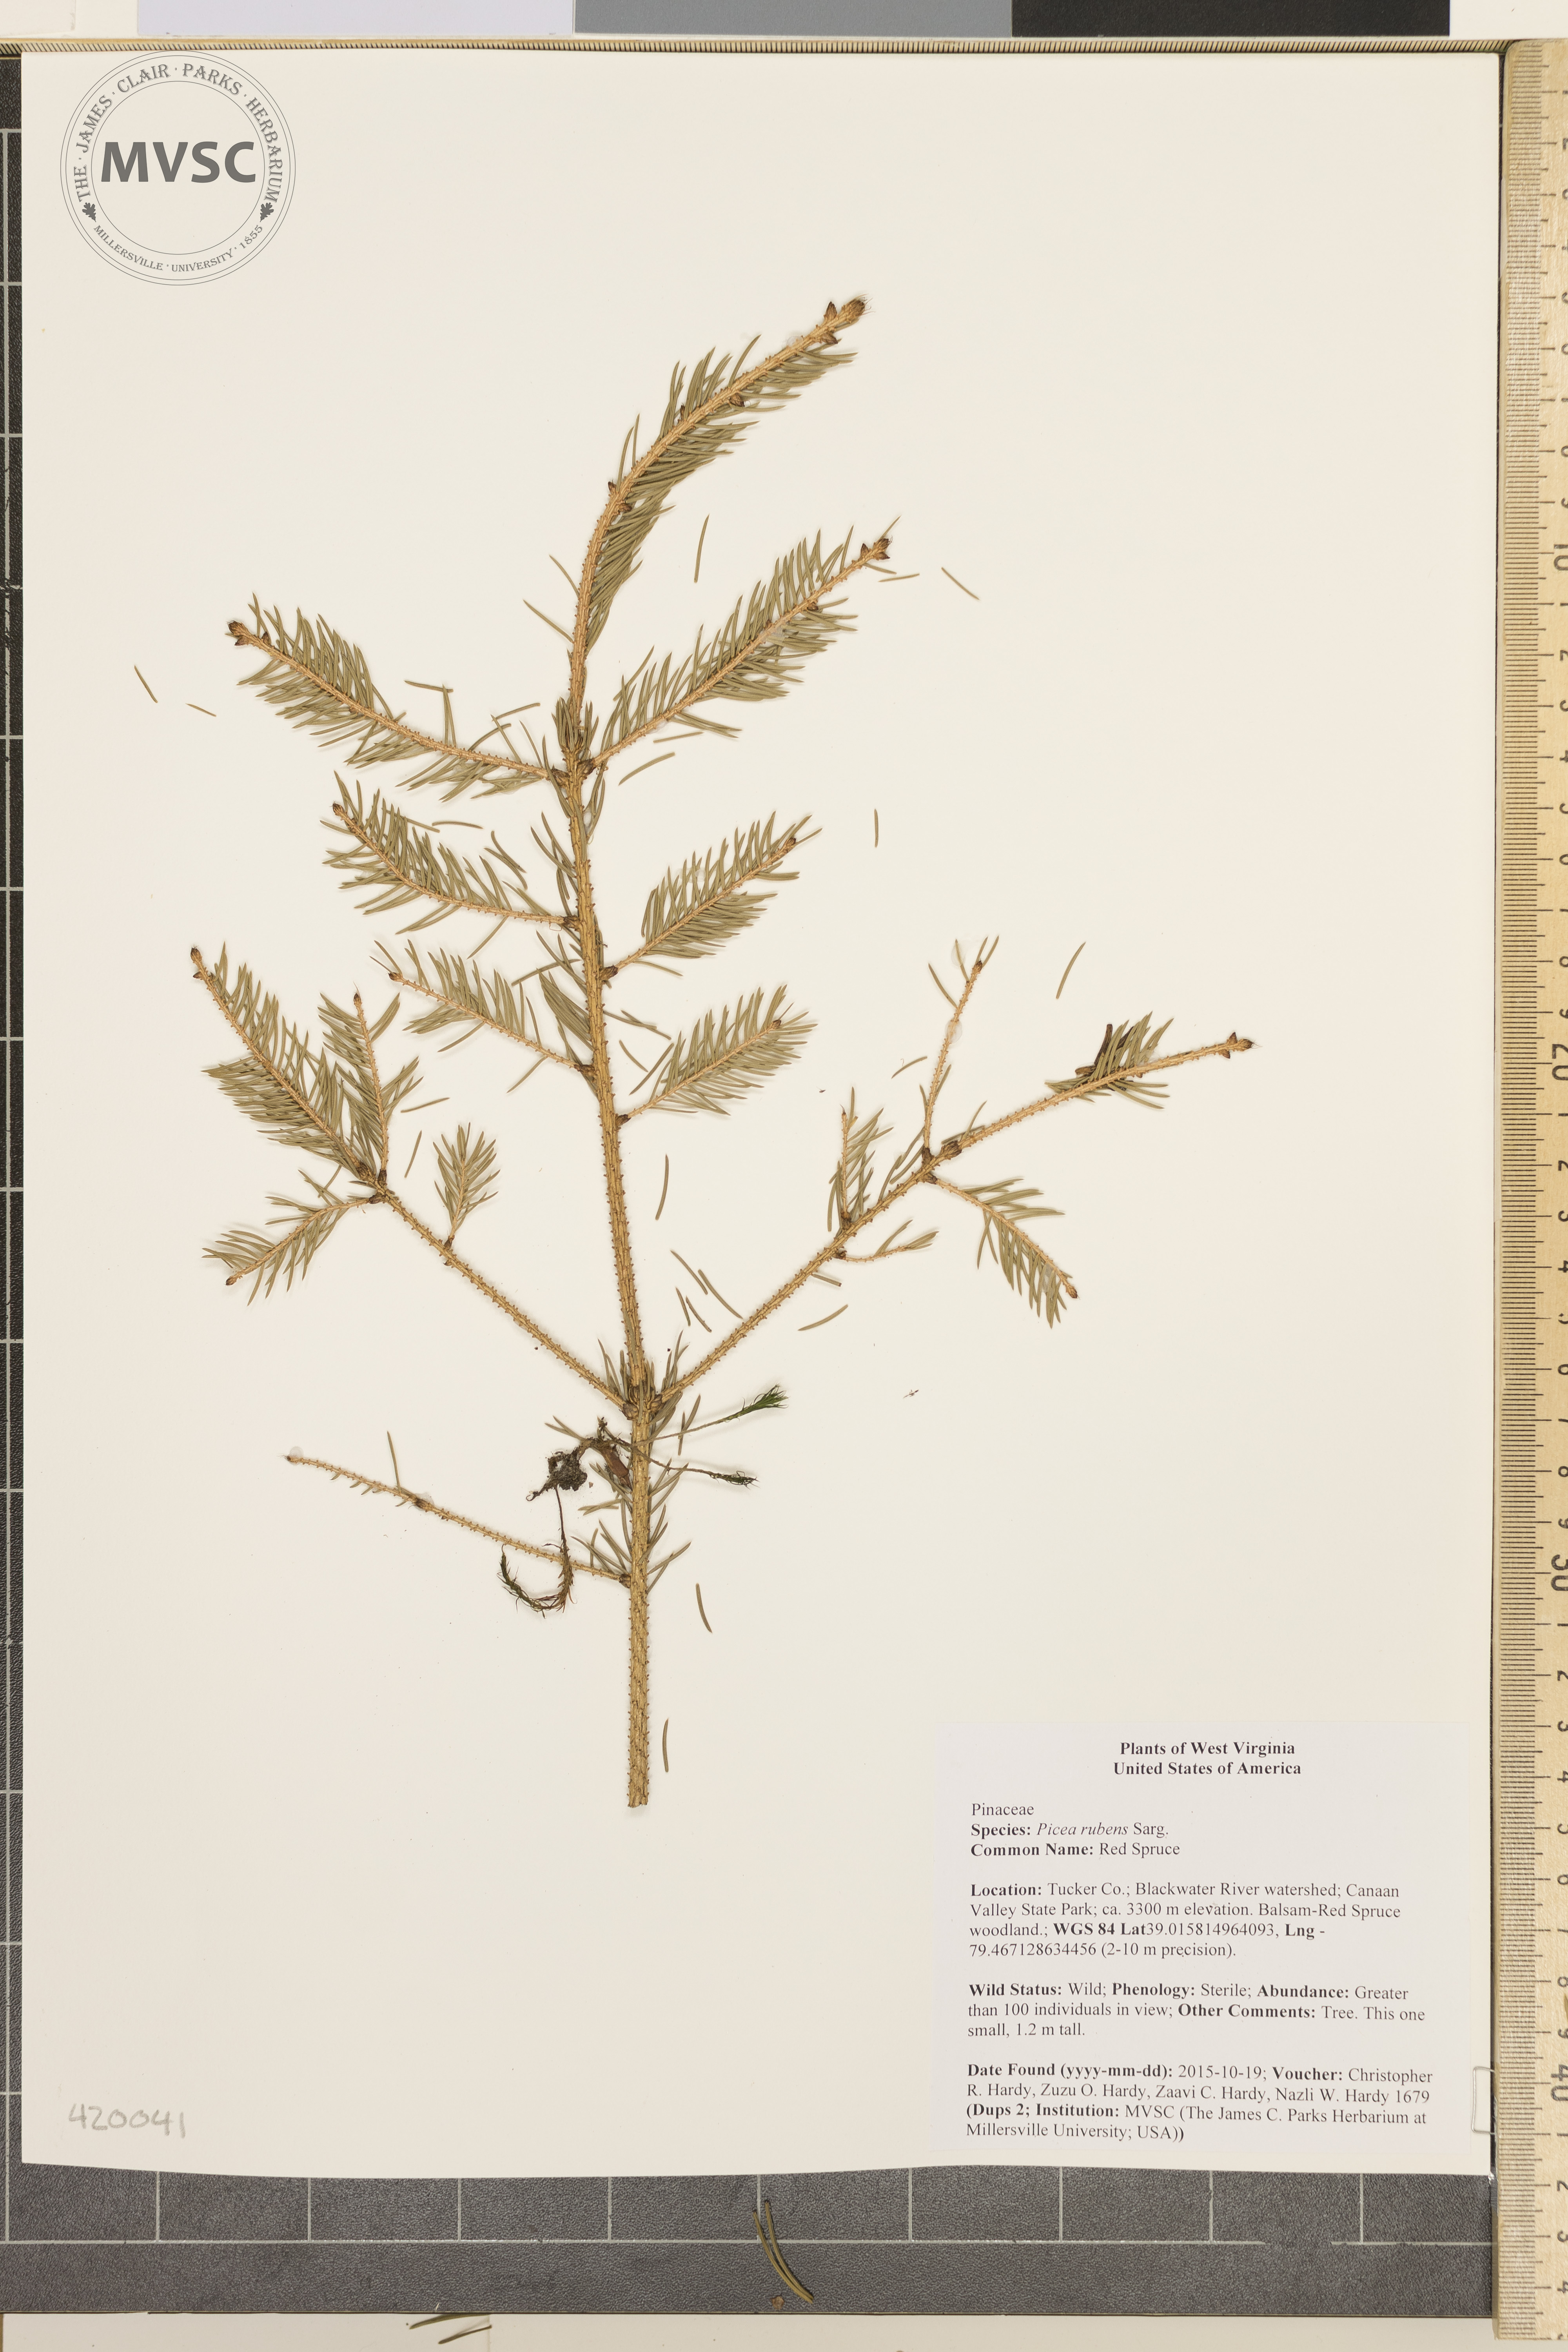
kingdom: Plantae
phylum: Tracheophyta
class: Pinopsida
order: Pinales
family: Pinaceae
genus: Picea
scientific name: Picea rubens
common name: Red Spruce
